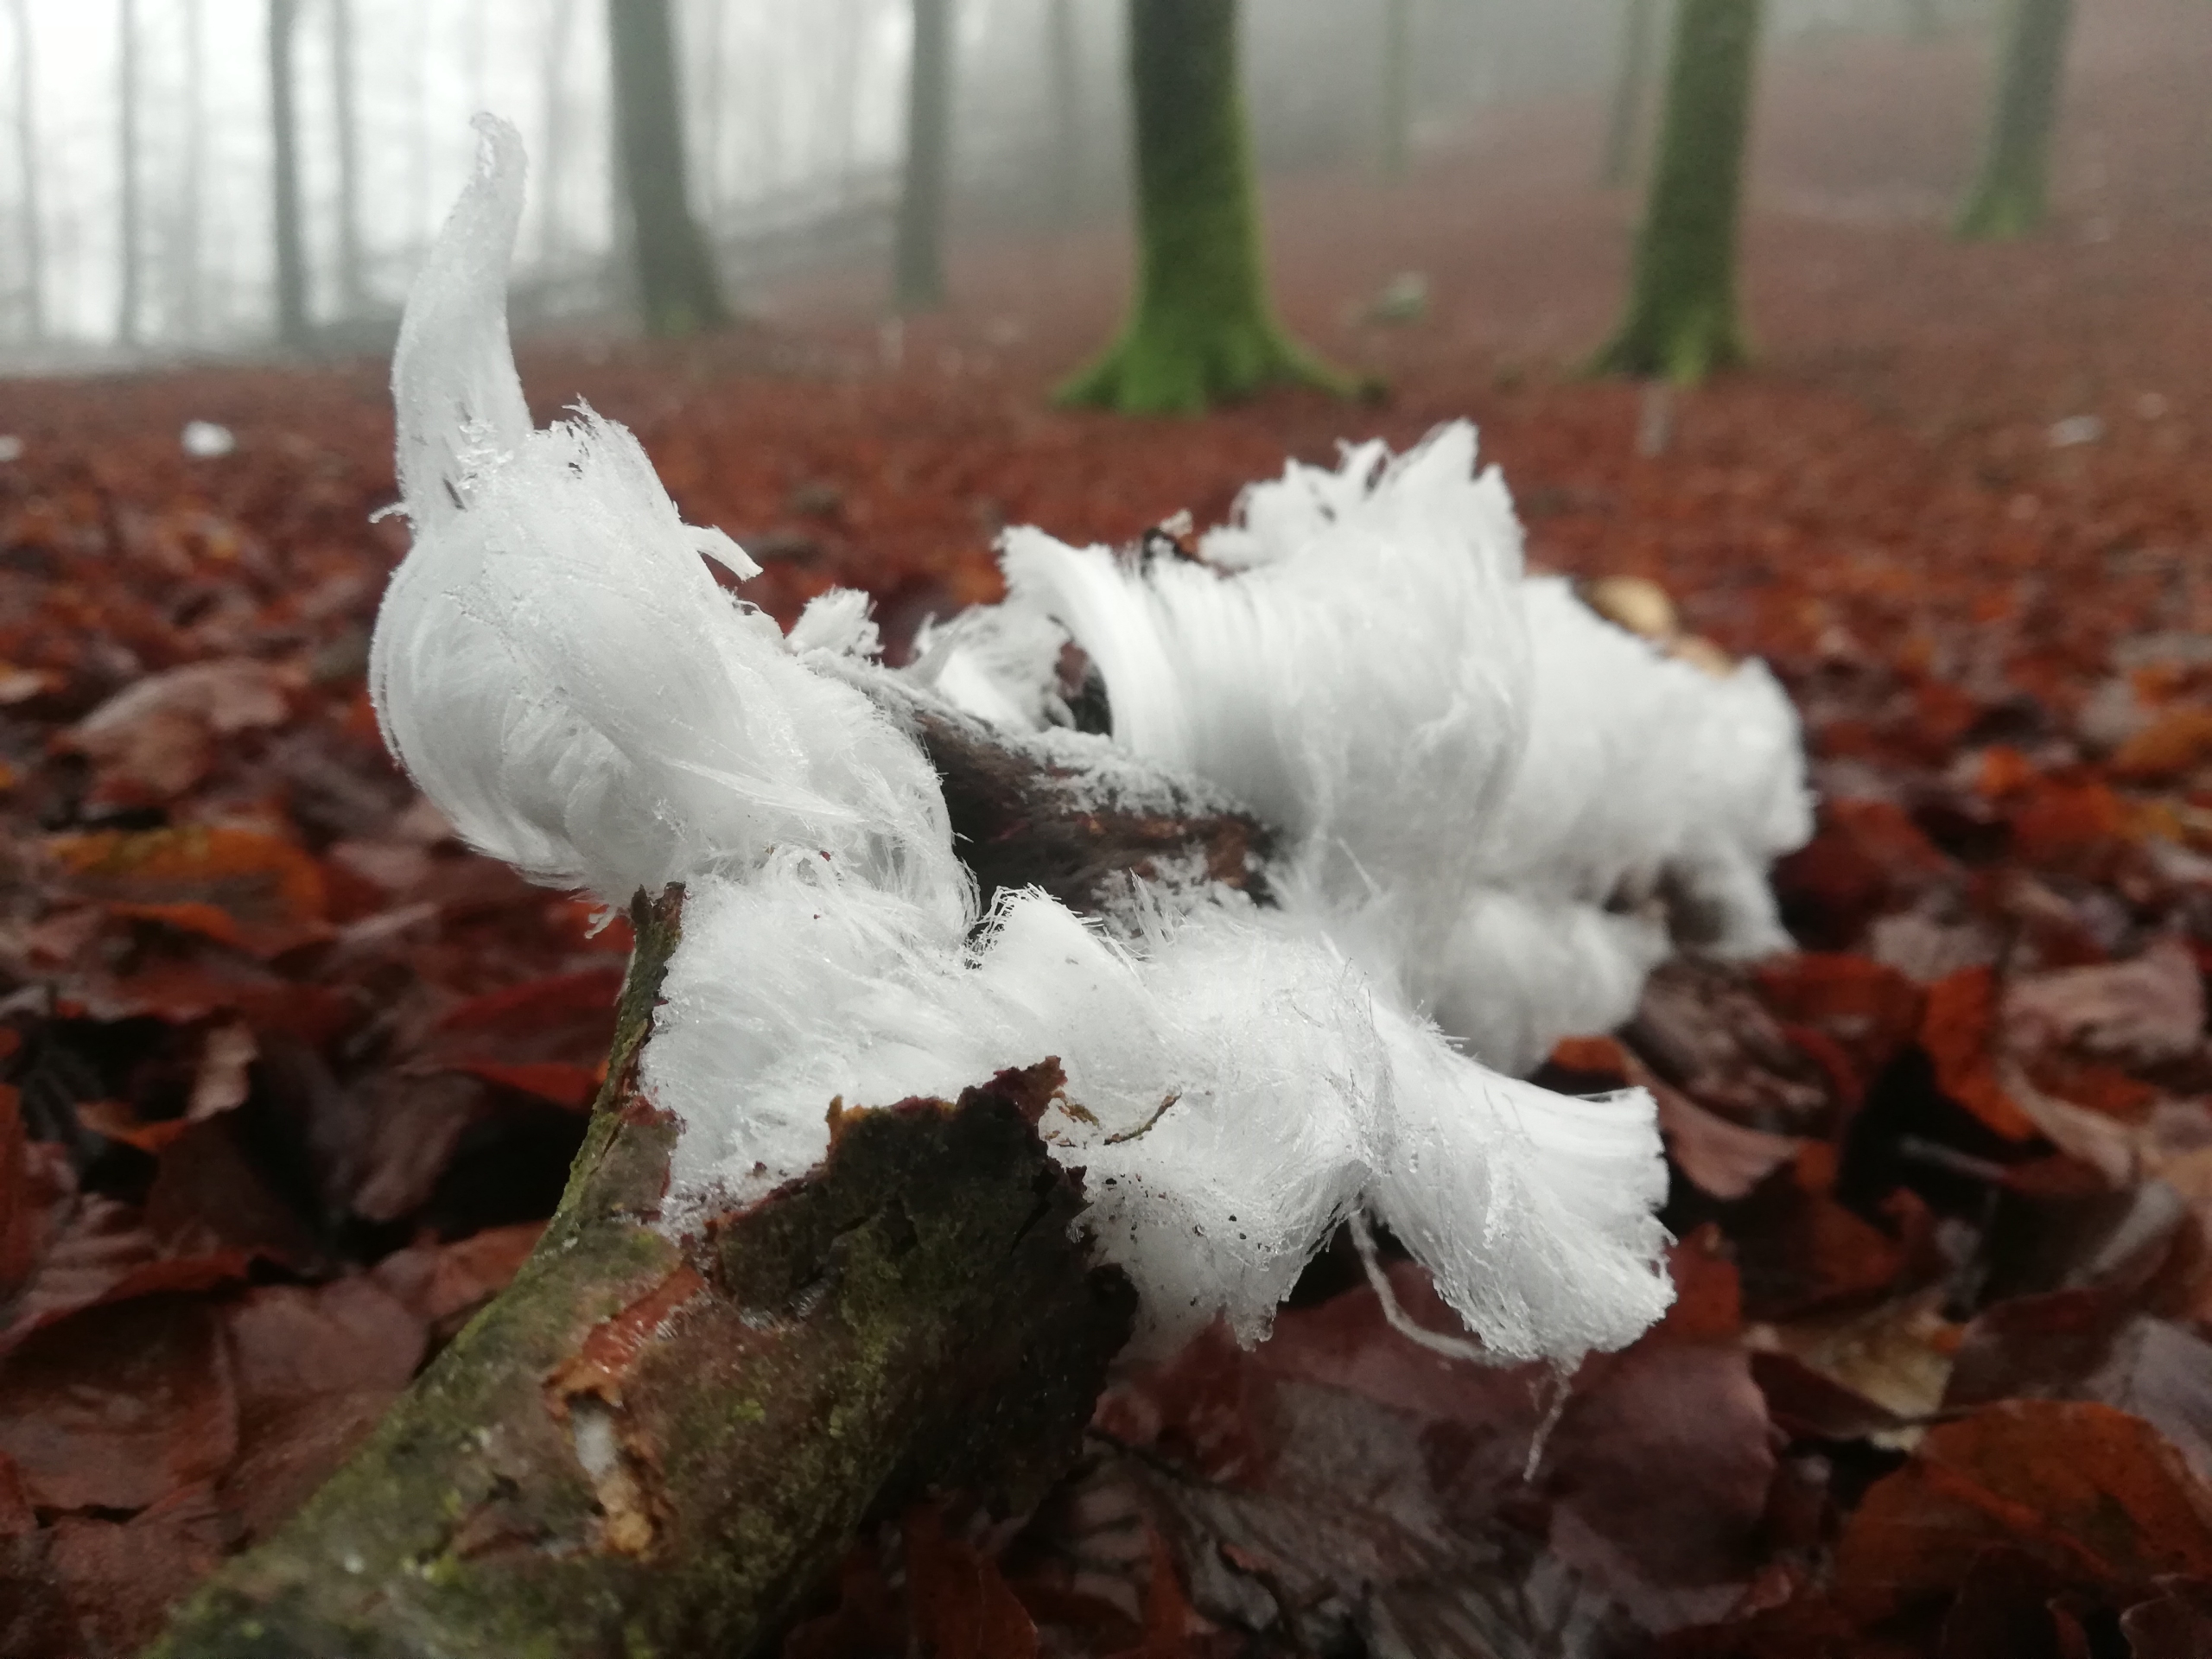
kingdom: Fungi
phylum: Basidiomycota
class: Tremellomycetes
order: Tremellales
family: Exidiaceae
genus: Exidiopsis
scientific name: Exidiopsis effusa
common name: Smuk bævrehinde
